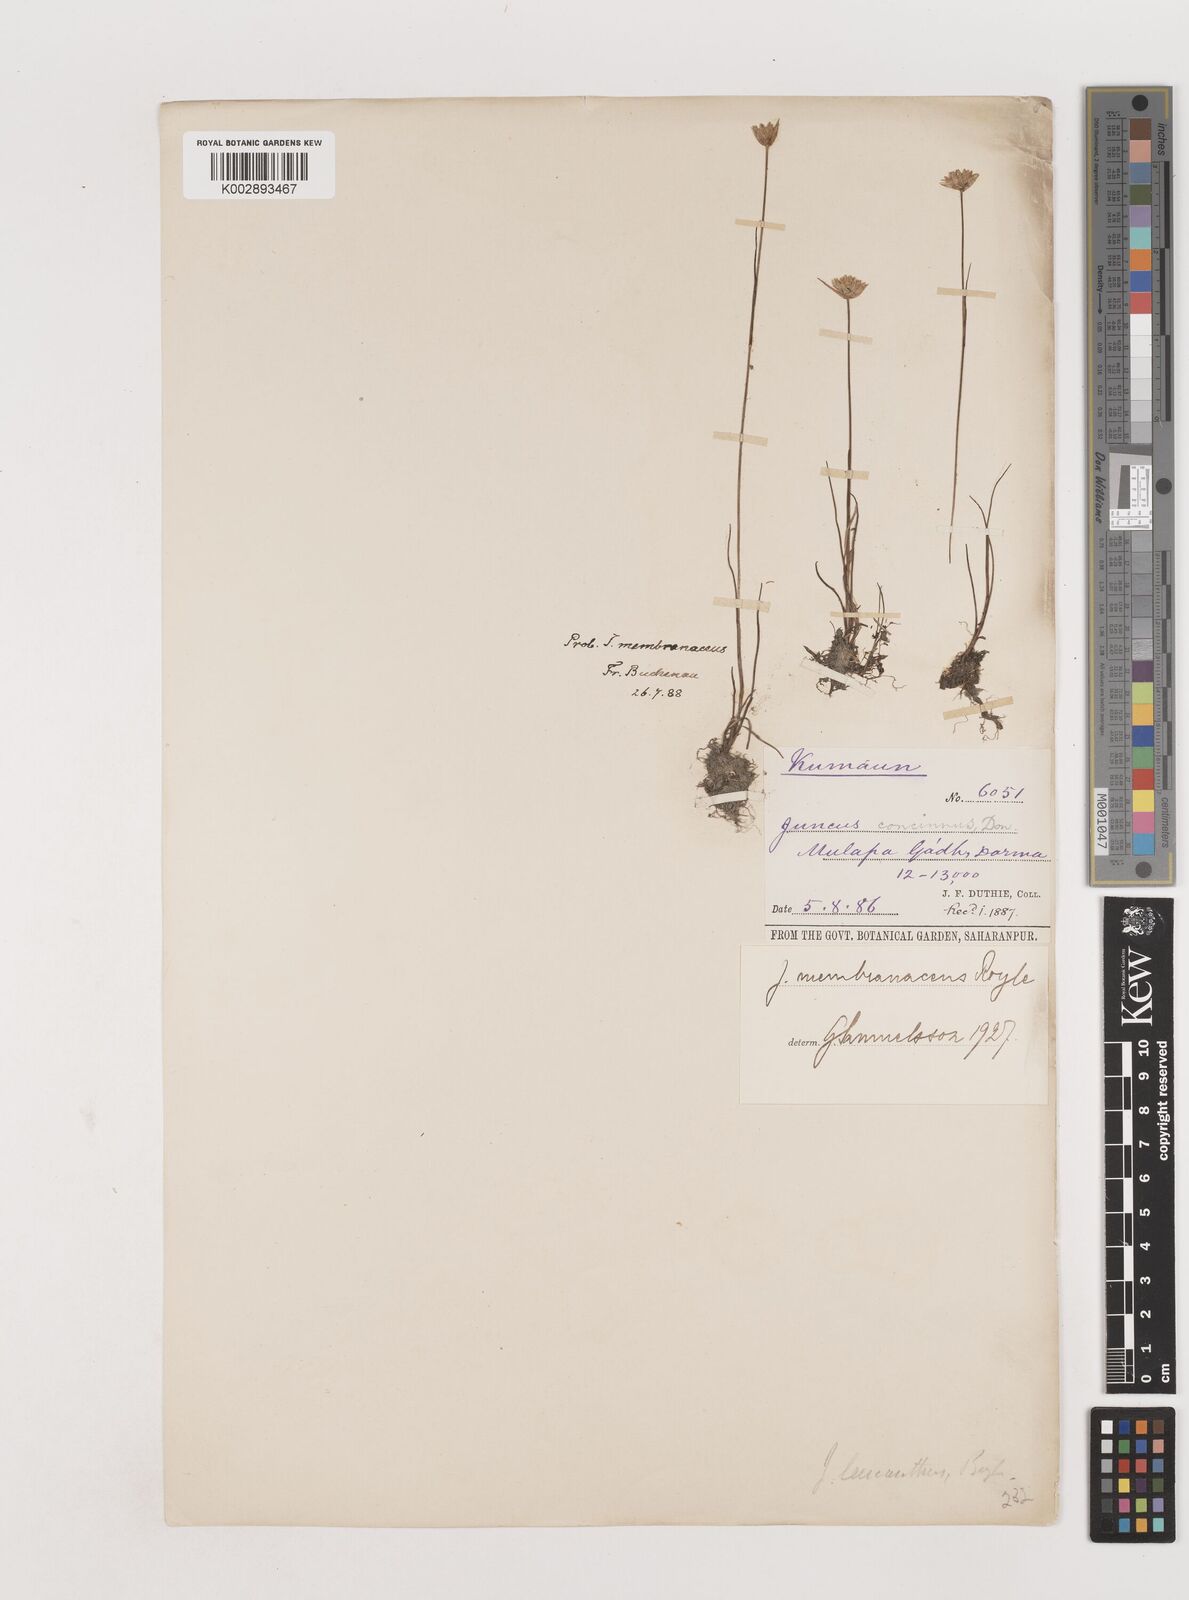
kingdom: Plantae
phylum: Tracheophyta
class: Liliopsida
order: Poales
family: Juncaceae
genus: Juncus
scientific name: Juncus membranaceus
